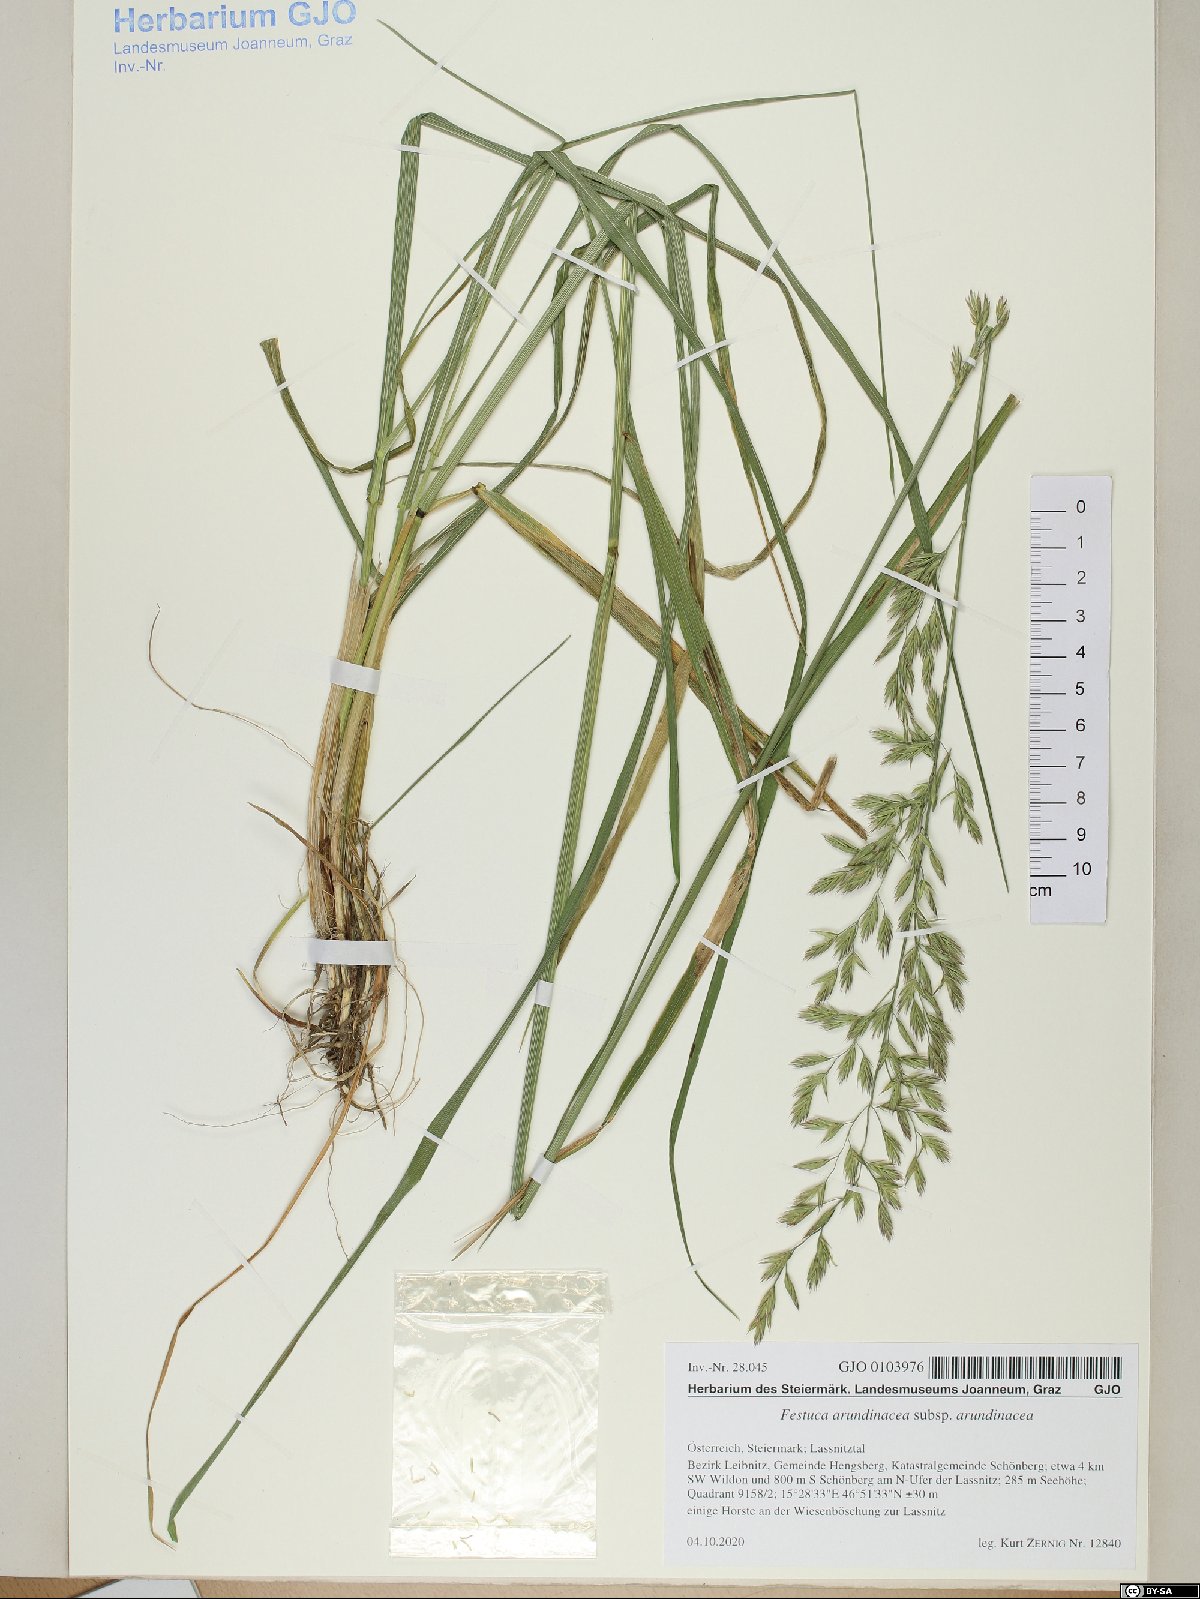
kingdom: Plantae
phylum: Tracheophyta
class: Liliopsida
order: Poales
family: Poaceae
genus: Lolium
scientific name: Lolium arundinaceum
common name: Reed fescue
